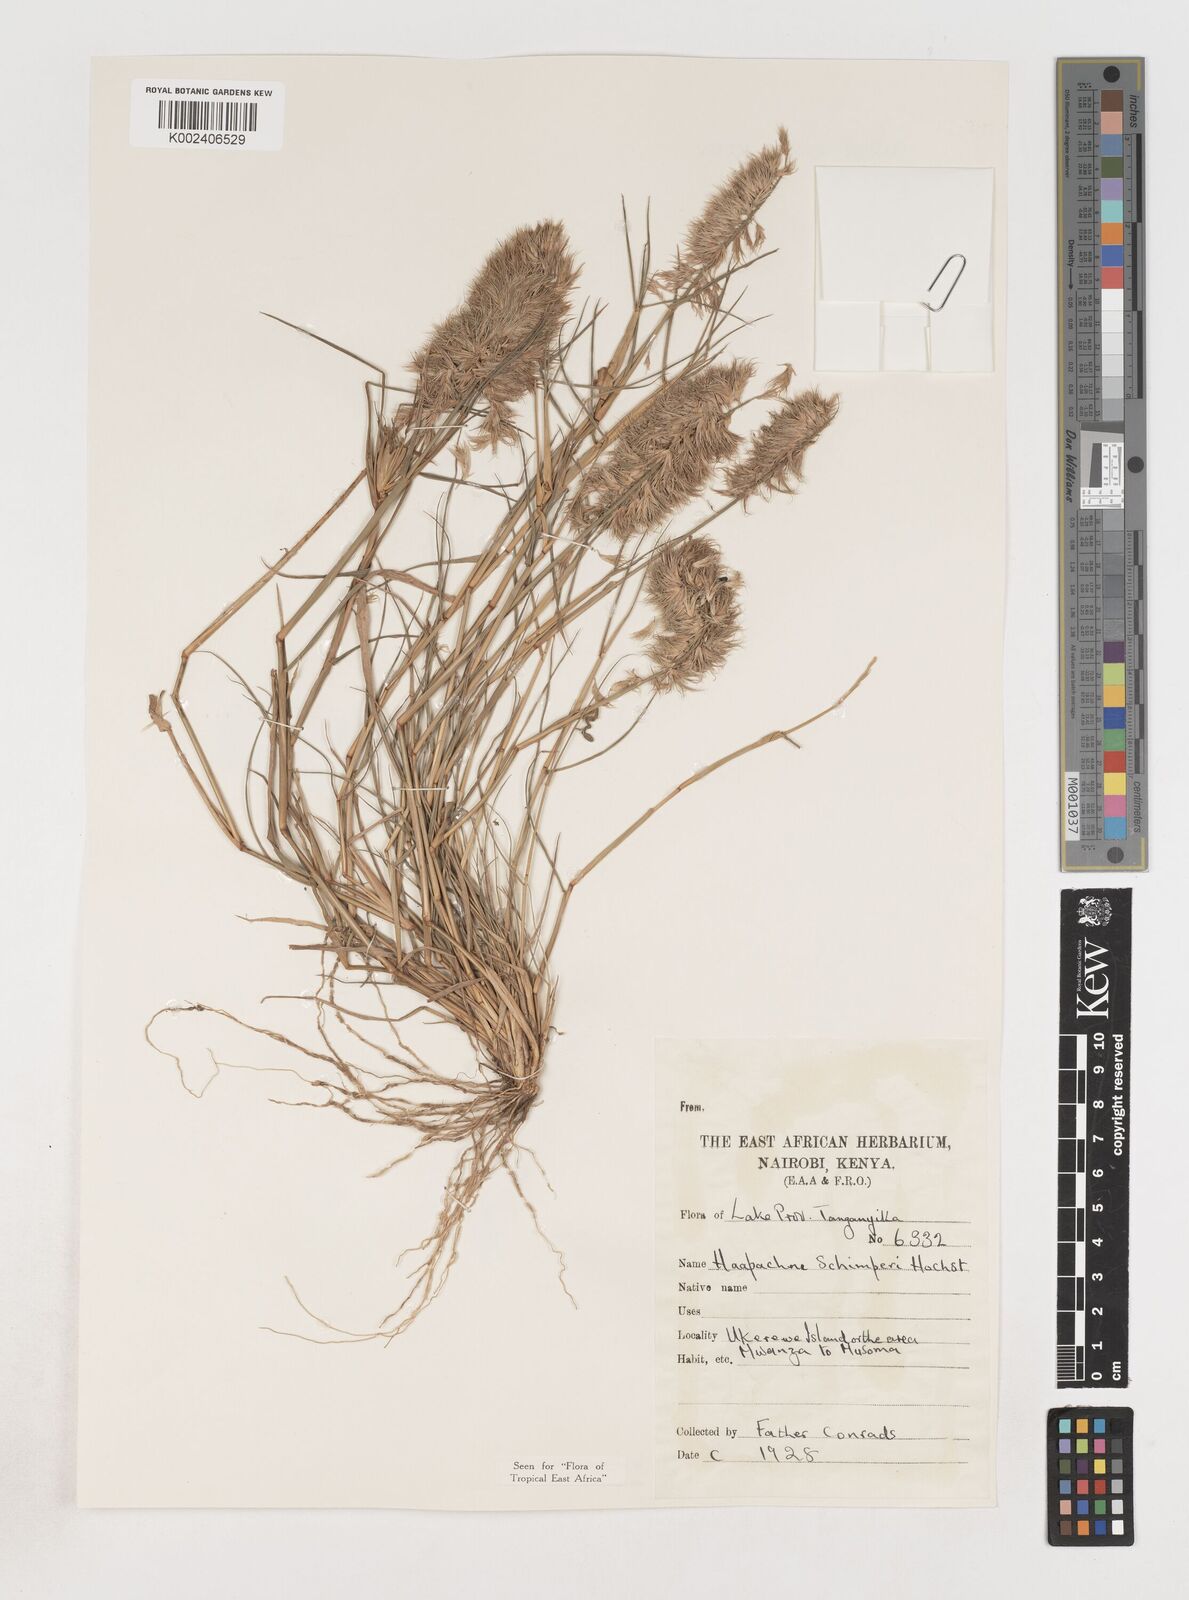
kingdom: Plantae
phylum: Tracheophyta
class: Liliopsida
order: Poales
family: Poaceae
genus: Harpachne
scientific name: Harpachne schimperi
